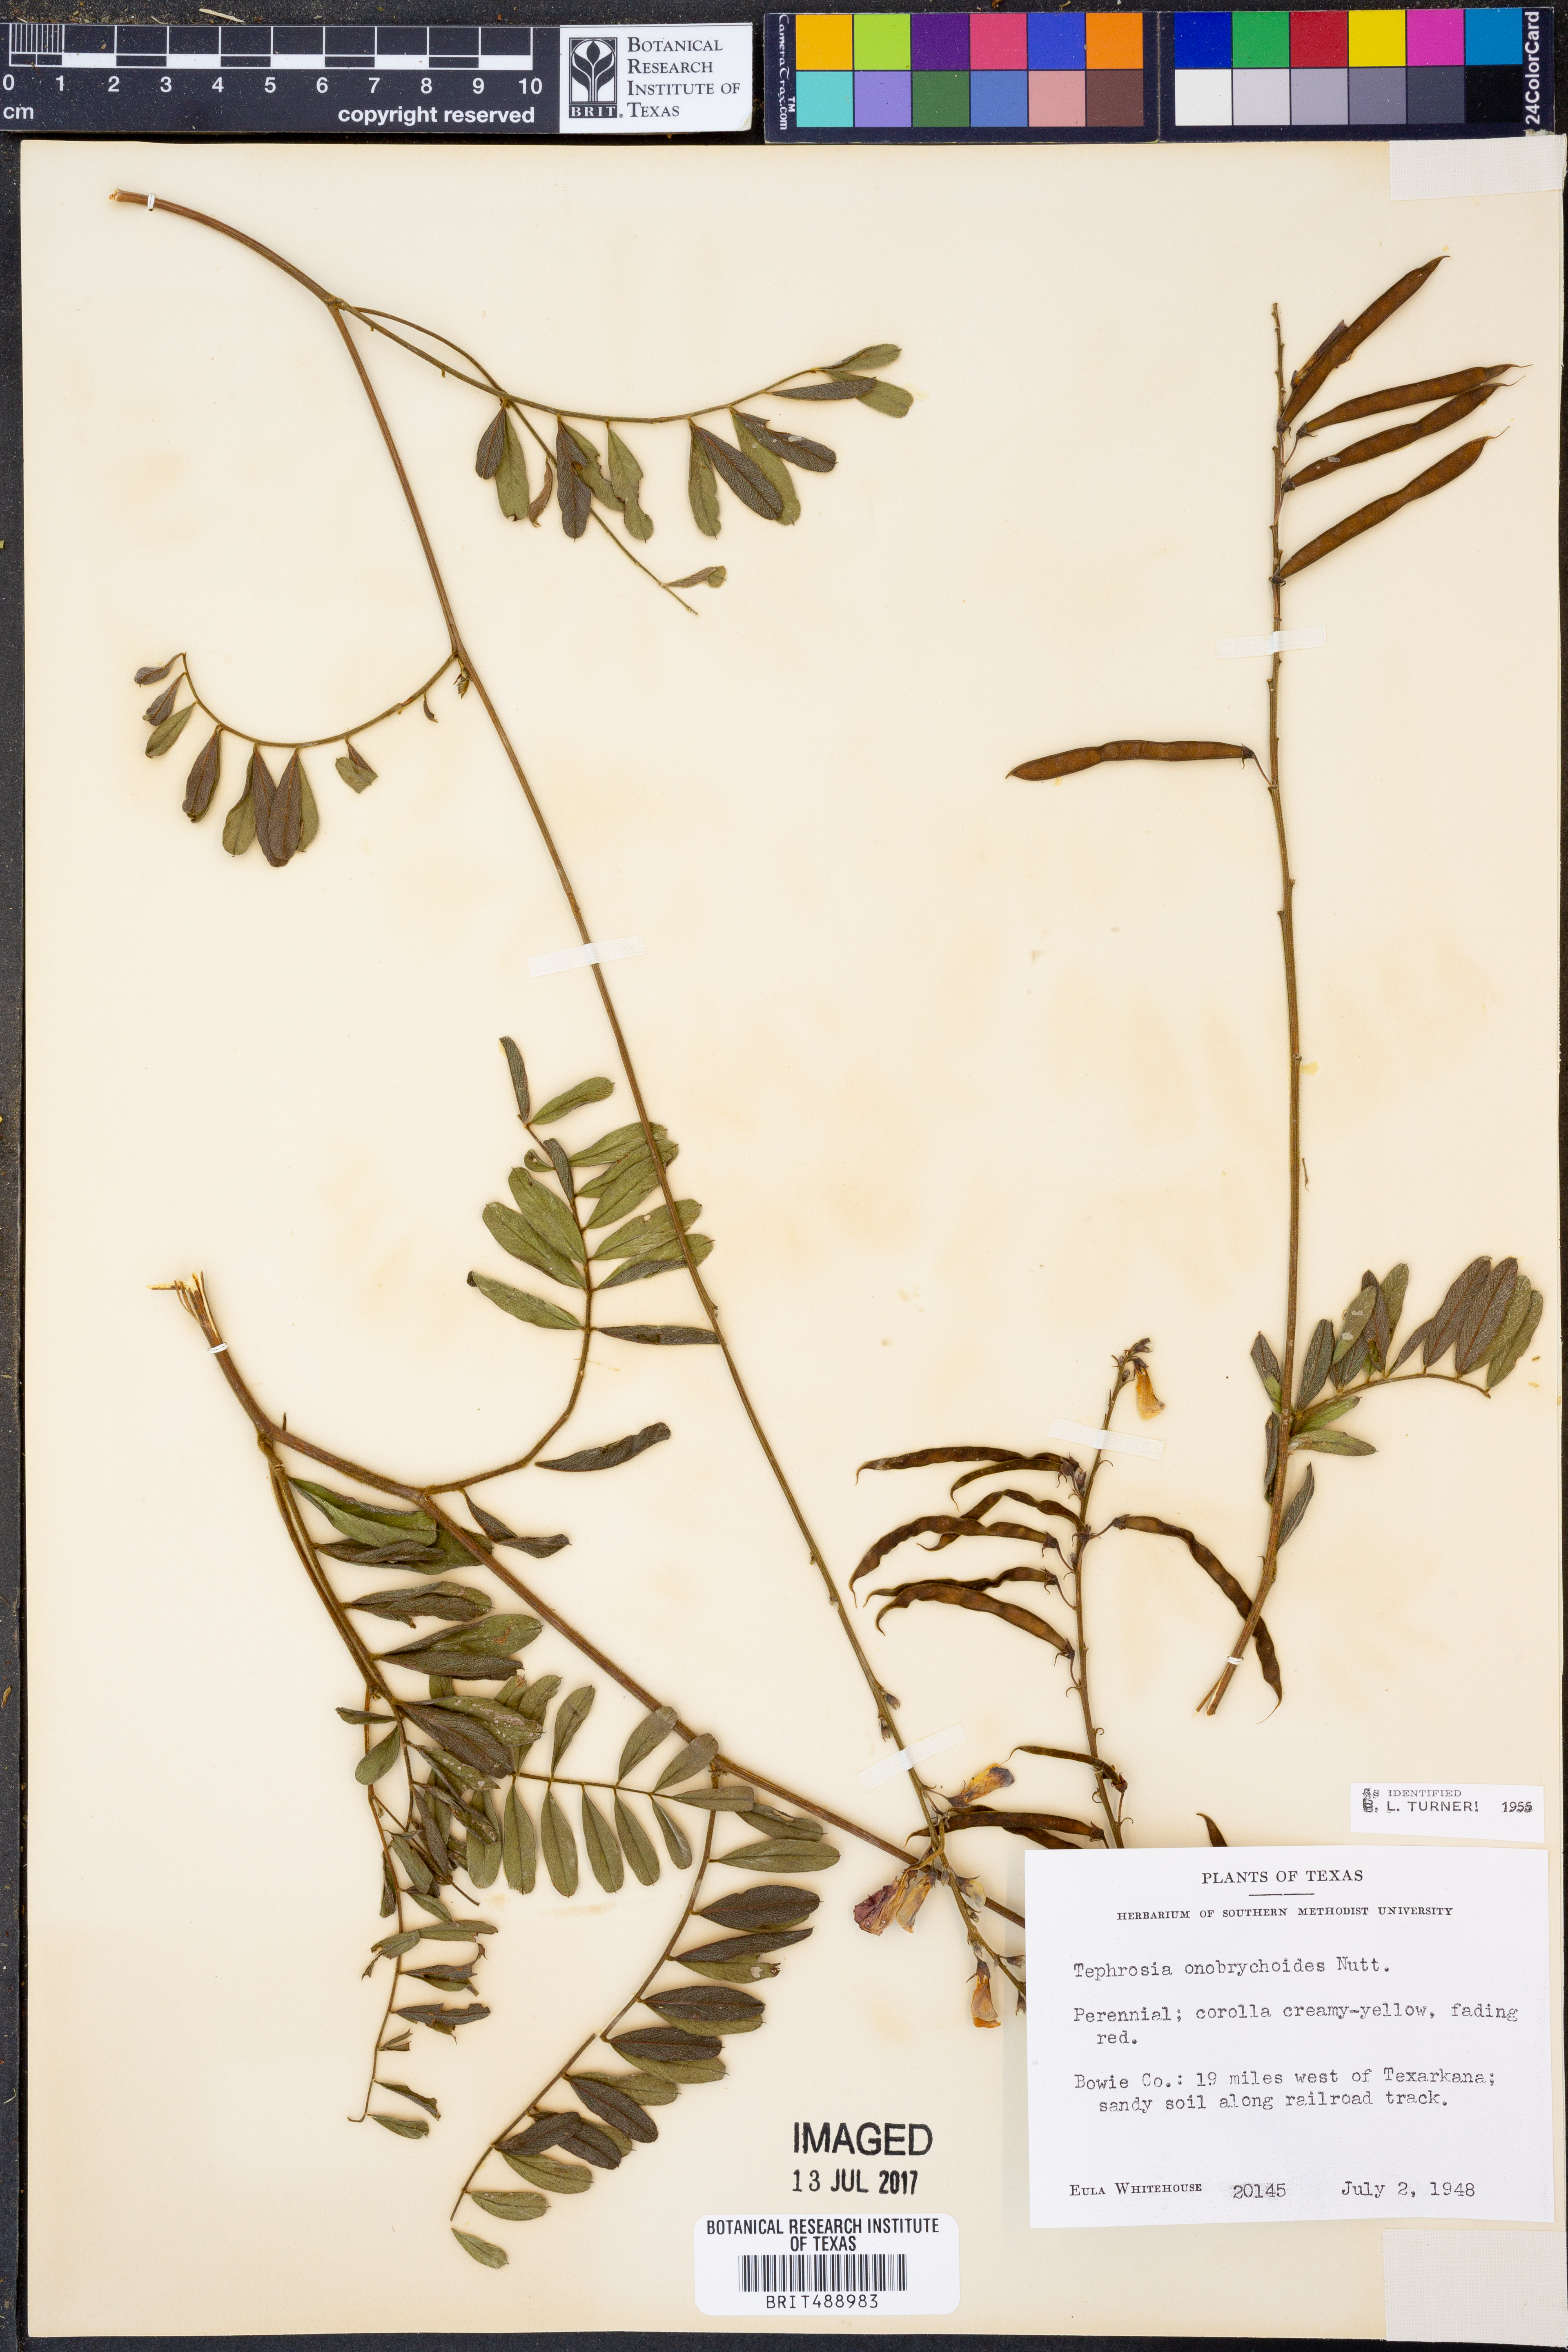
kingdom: Plantae
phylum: Tracheophyta
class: Magnoliopsida
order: Fabales
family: Fabaceae
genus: Tephrosia
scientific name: Tephrosia onobrychoides
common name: Multi-bloom hoary-pea
